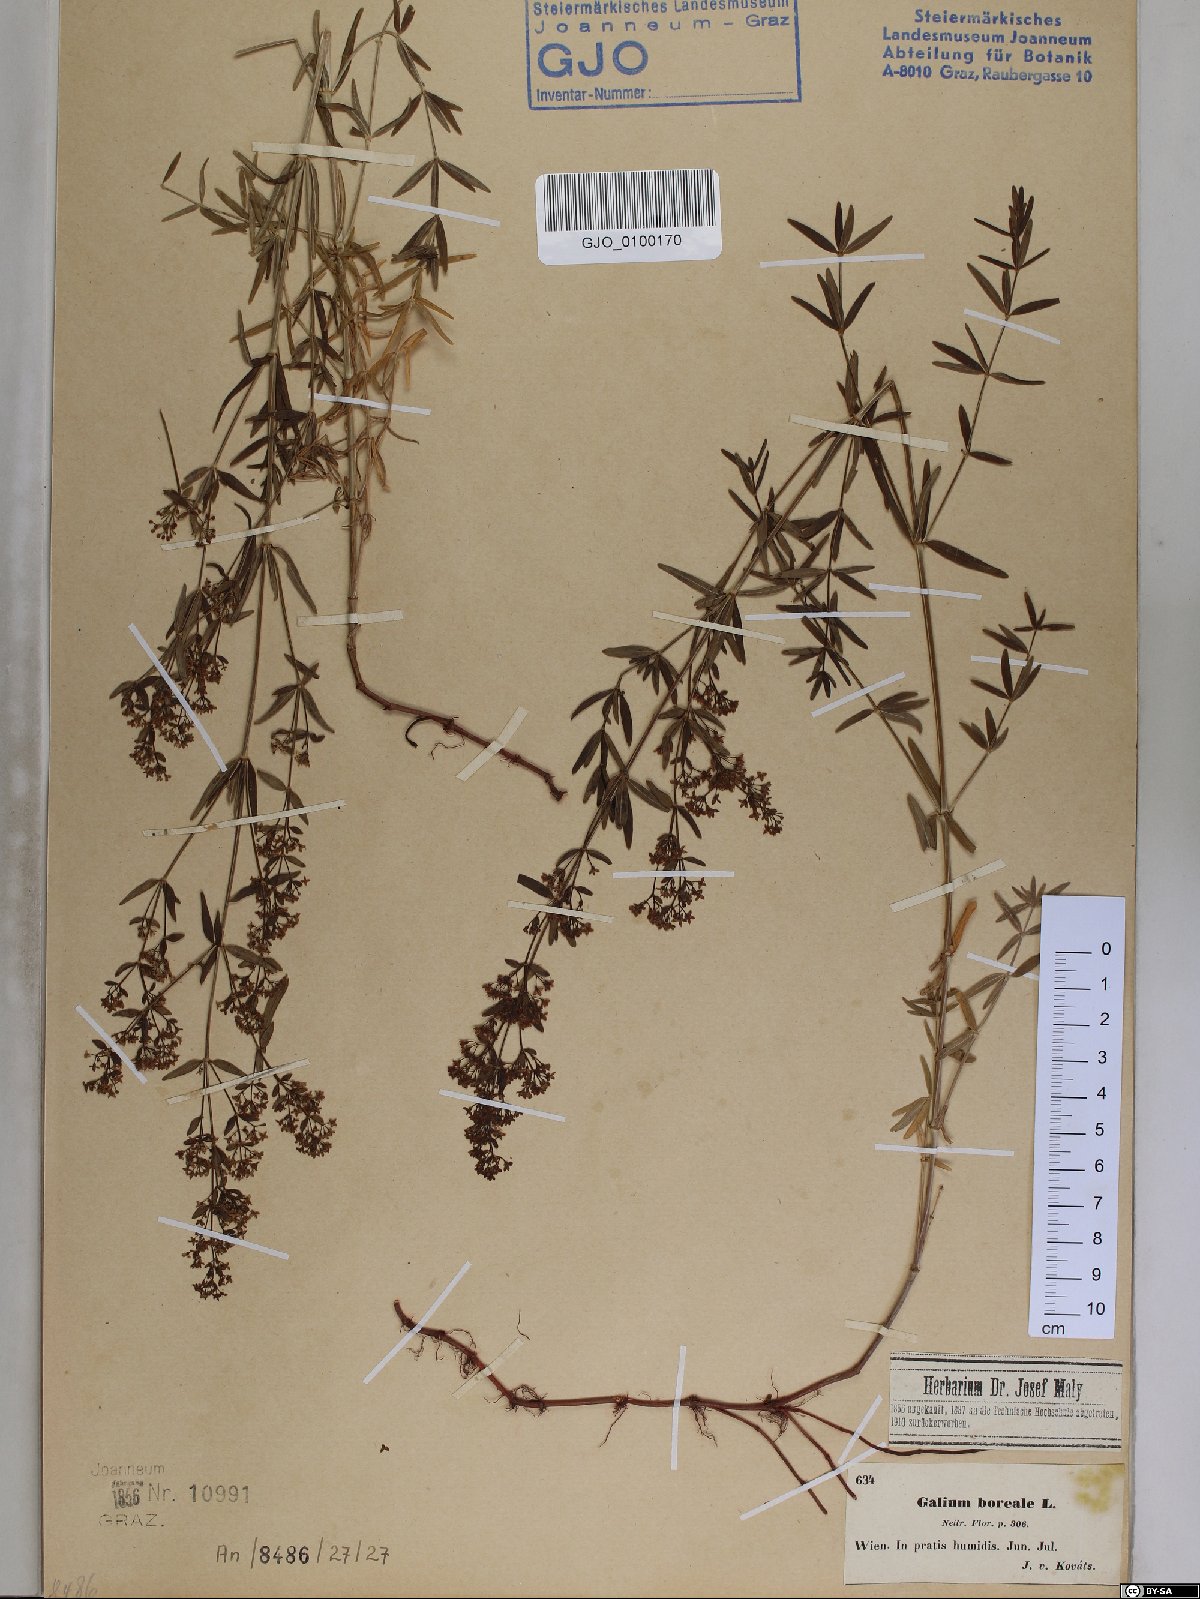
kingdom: Plantae
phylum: Tracheophyta
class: Magnoliopsida
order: Gentianales
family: Rubiaceae
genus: Galium
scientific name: Galium boreale
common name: Northern bedstraw
